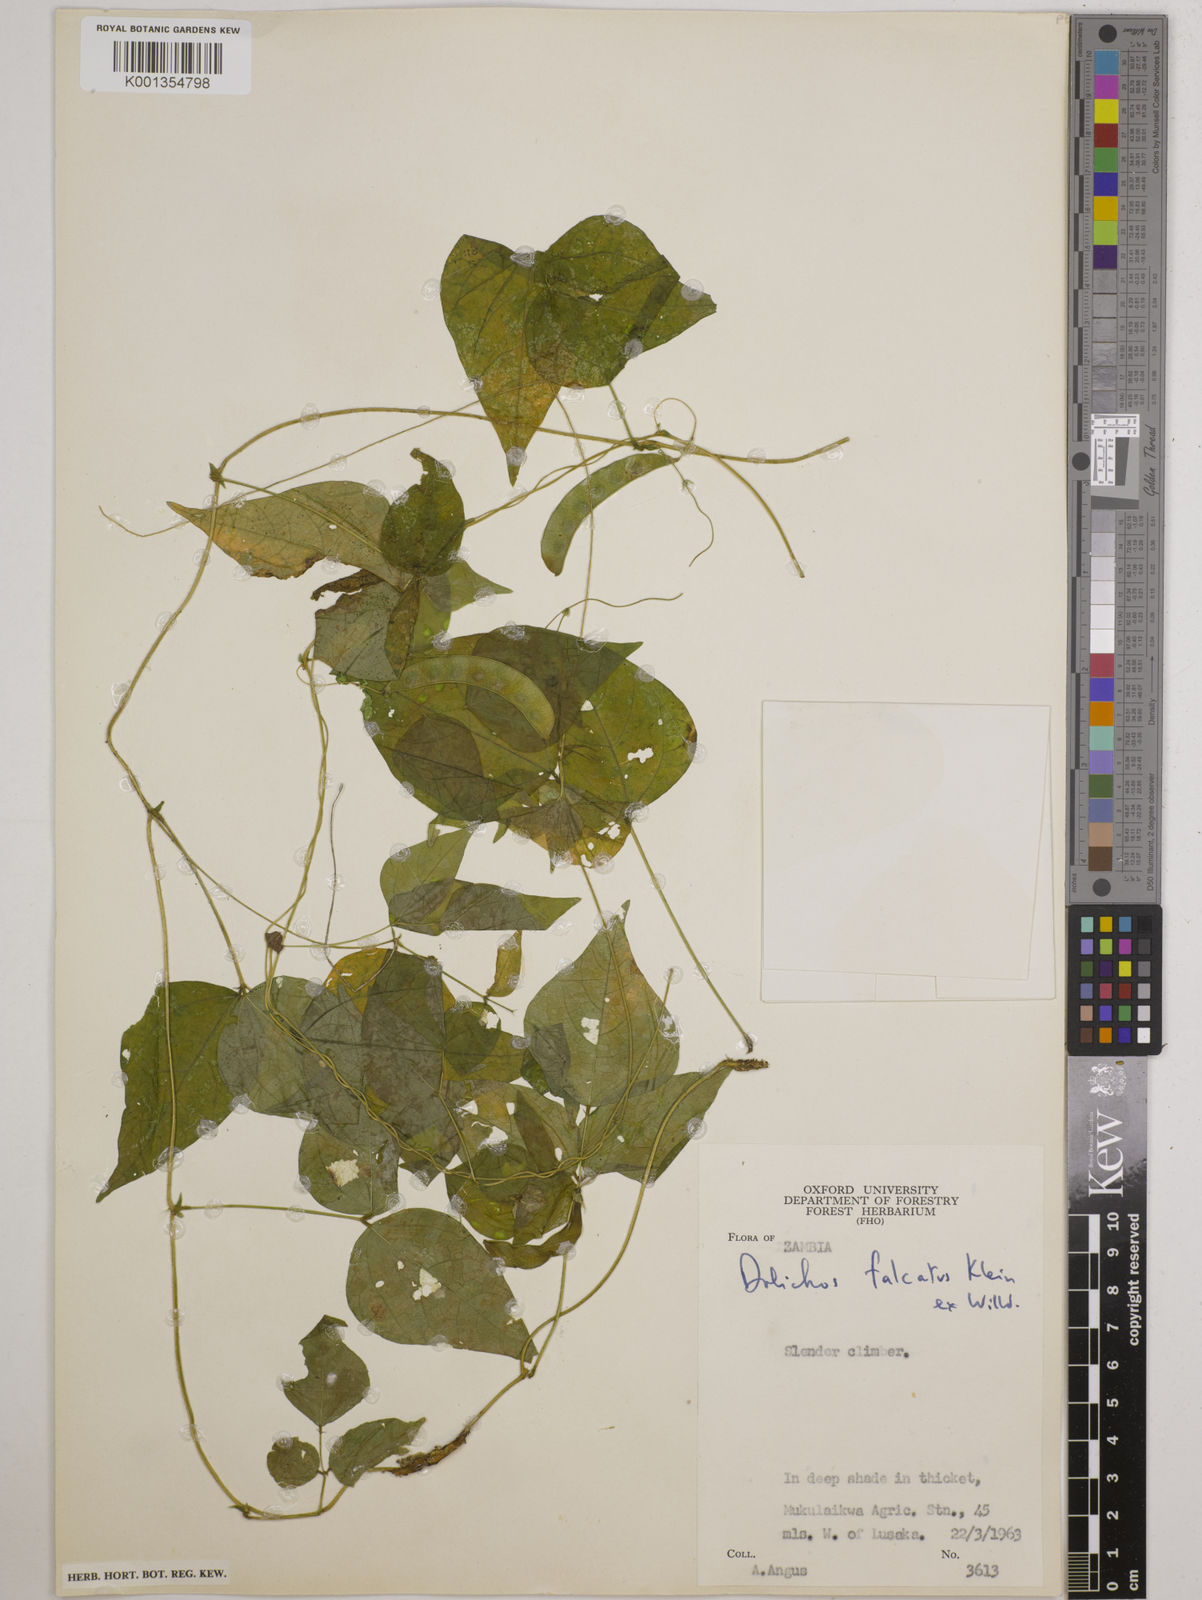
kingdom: Plantae
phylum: Tracheophyta
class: Magnoliopsida
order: Fabales
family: Fabaceae
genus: Dolichos
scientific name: Dolichos
